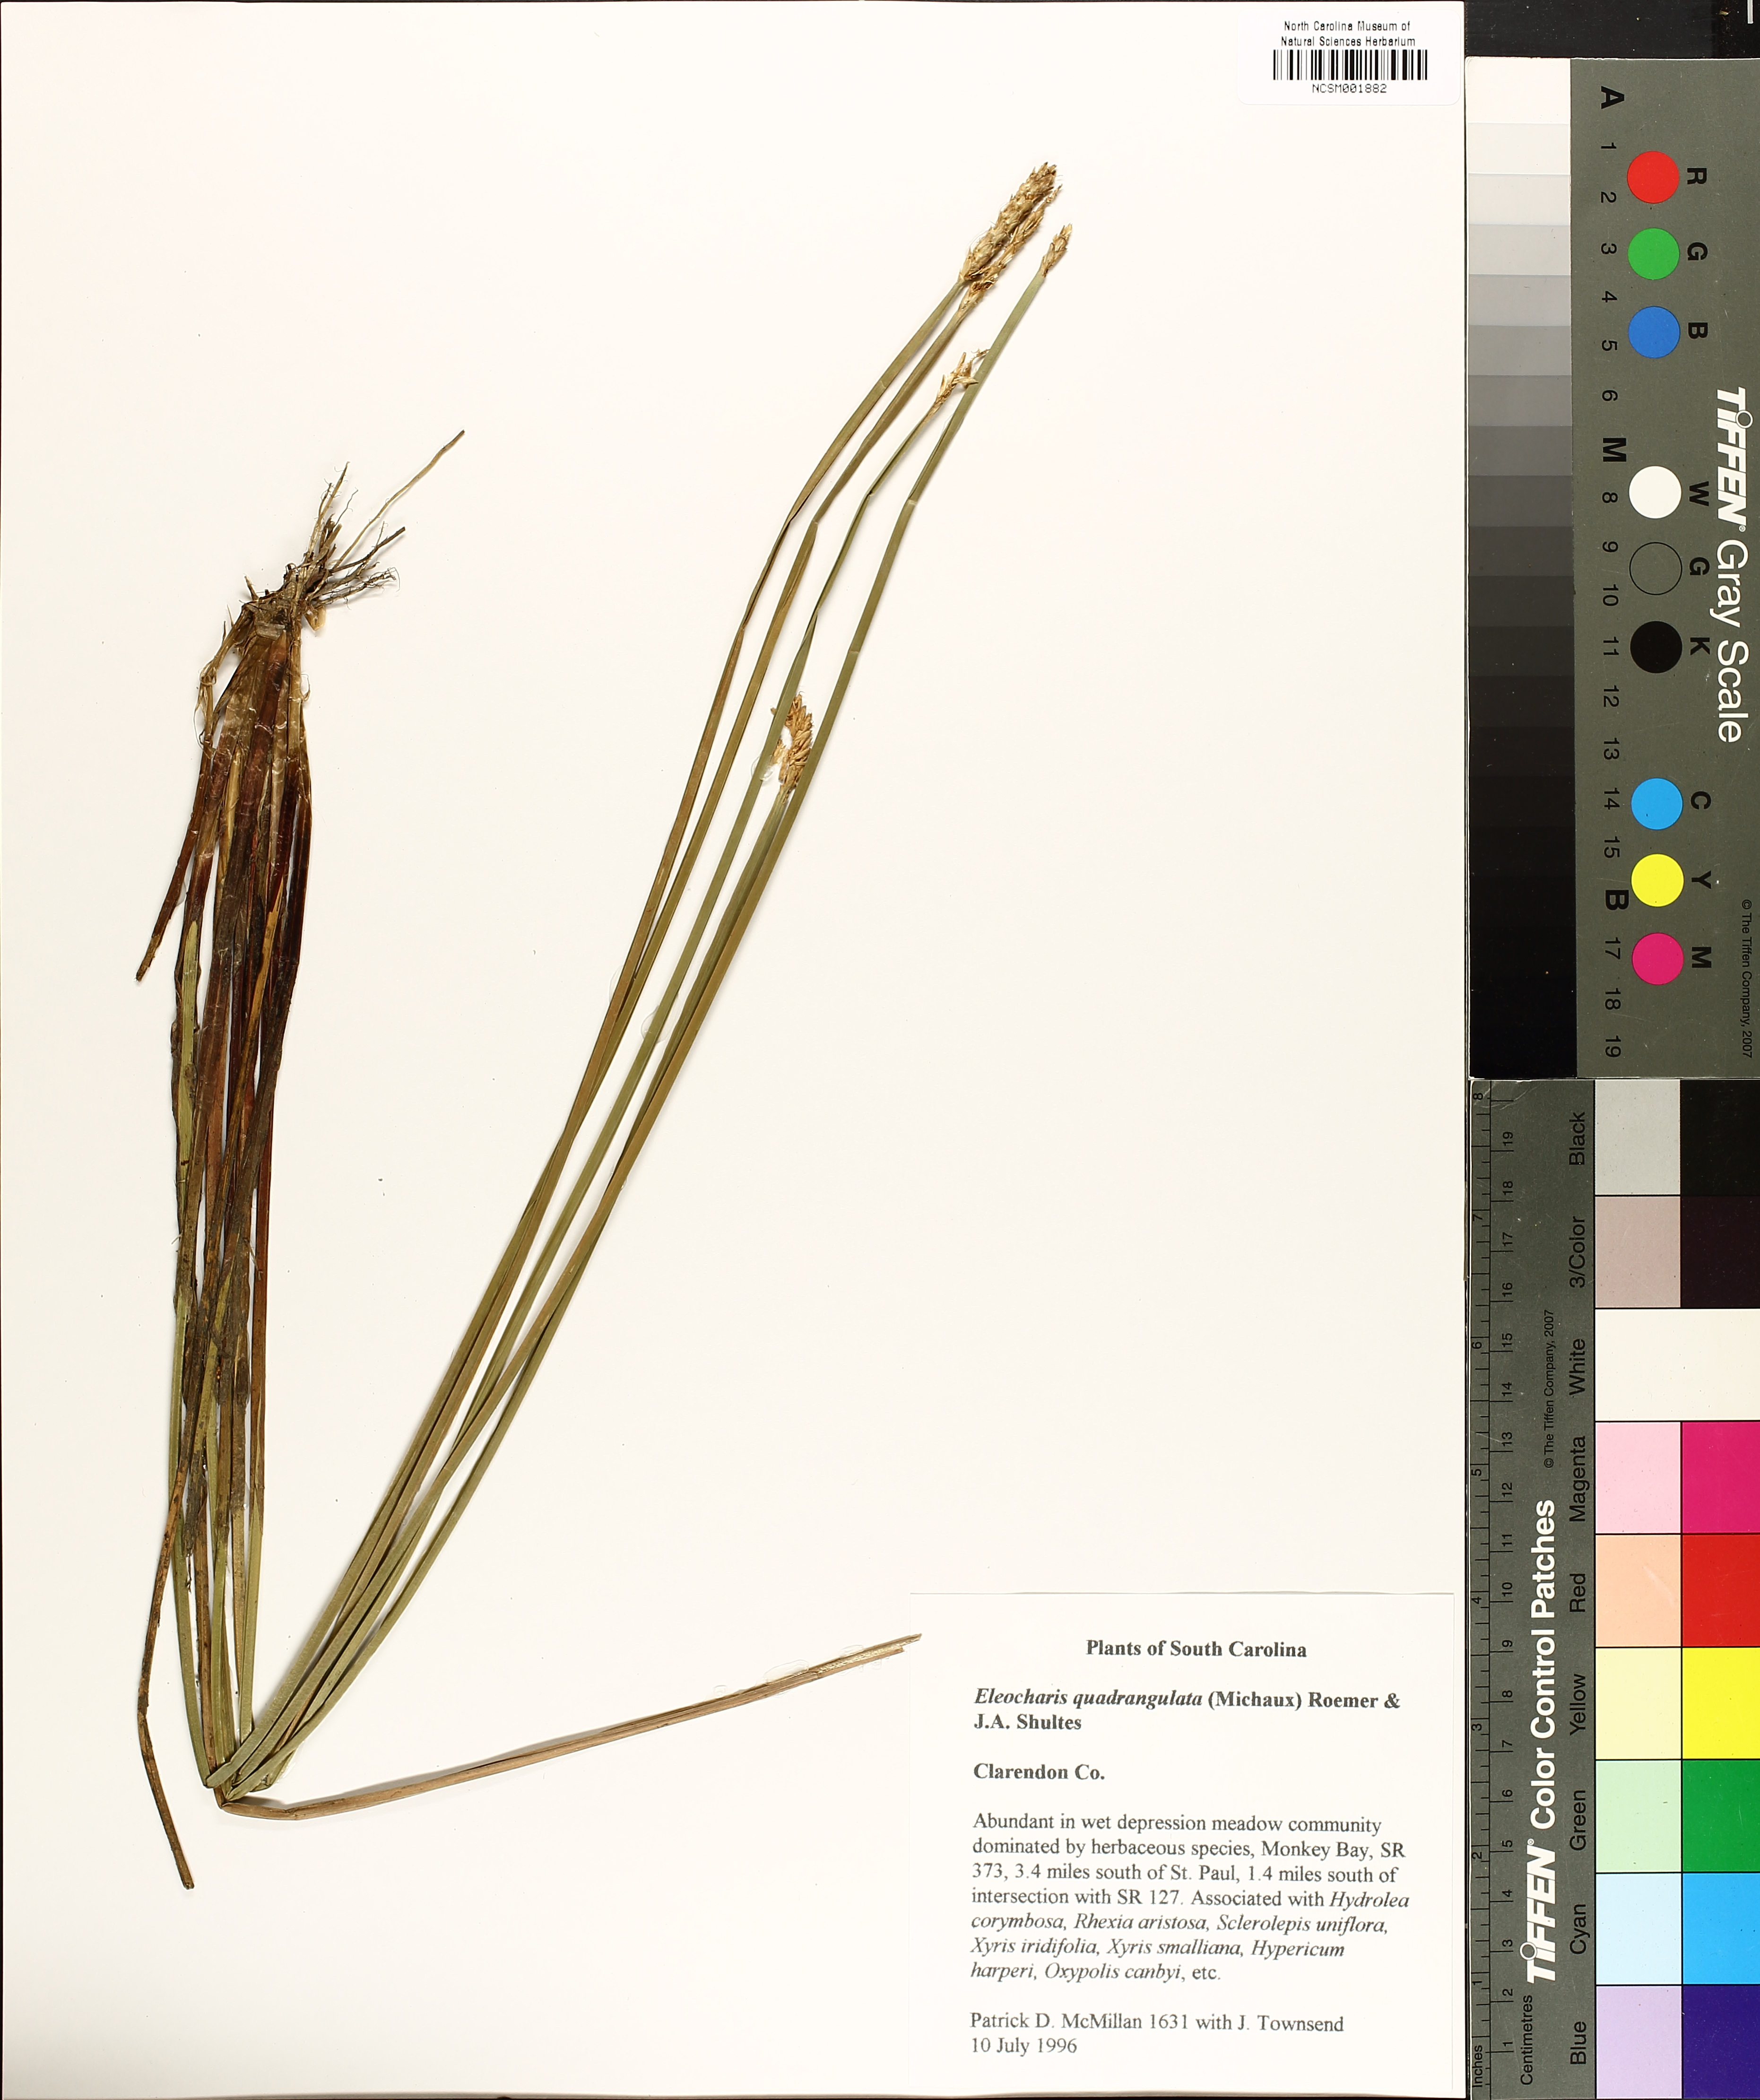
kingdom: Plantae
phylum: Tracheophyta
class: Liliopsida
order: Poales
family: Cyperaceae
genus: Eleocharis
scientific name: Eleocharis quadrangulata
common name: Square-stem spike-rush
